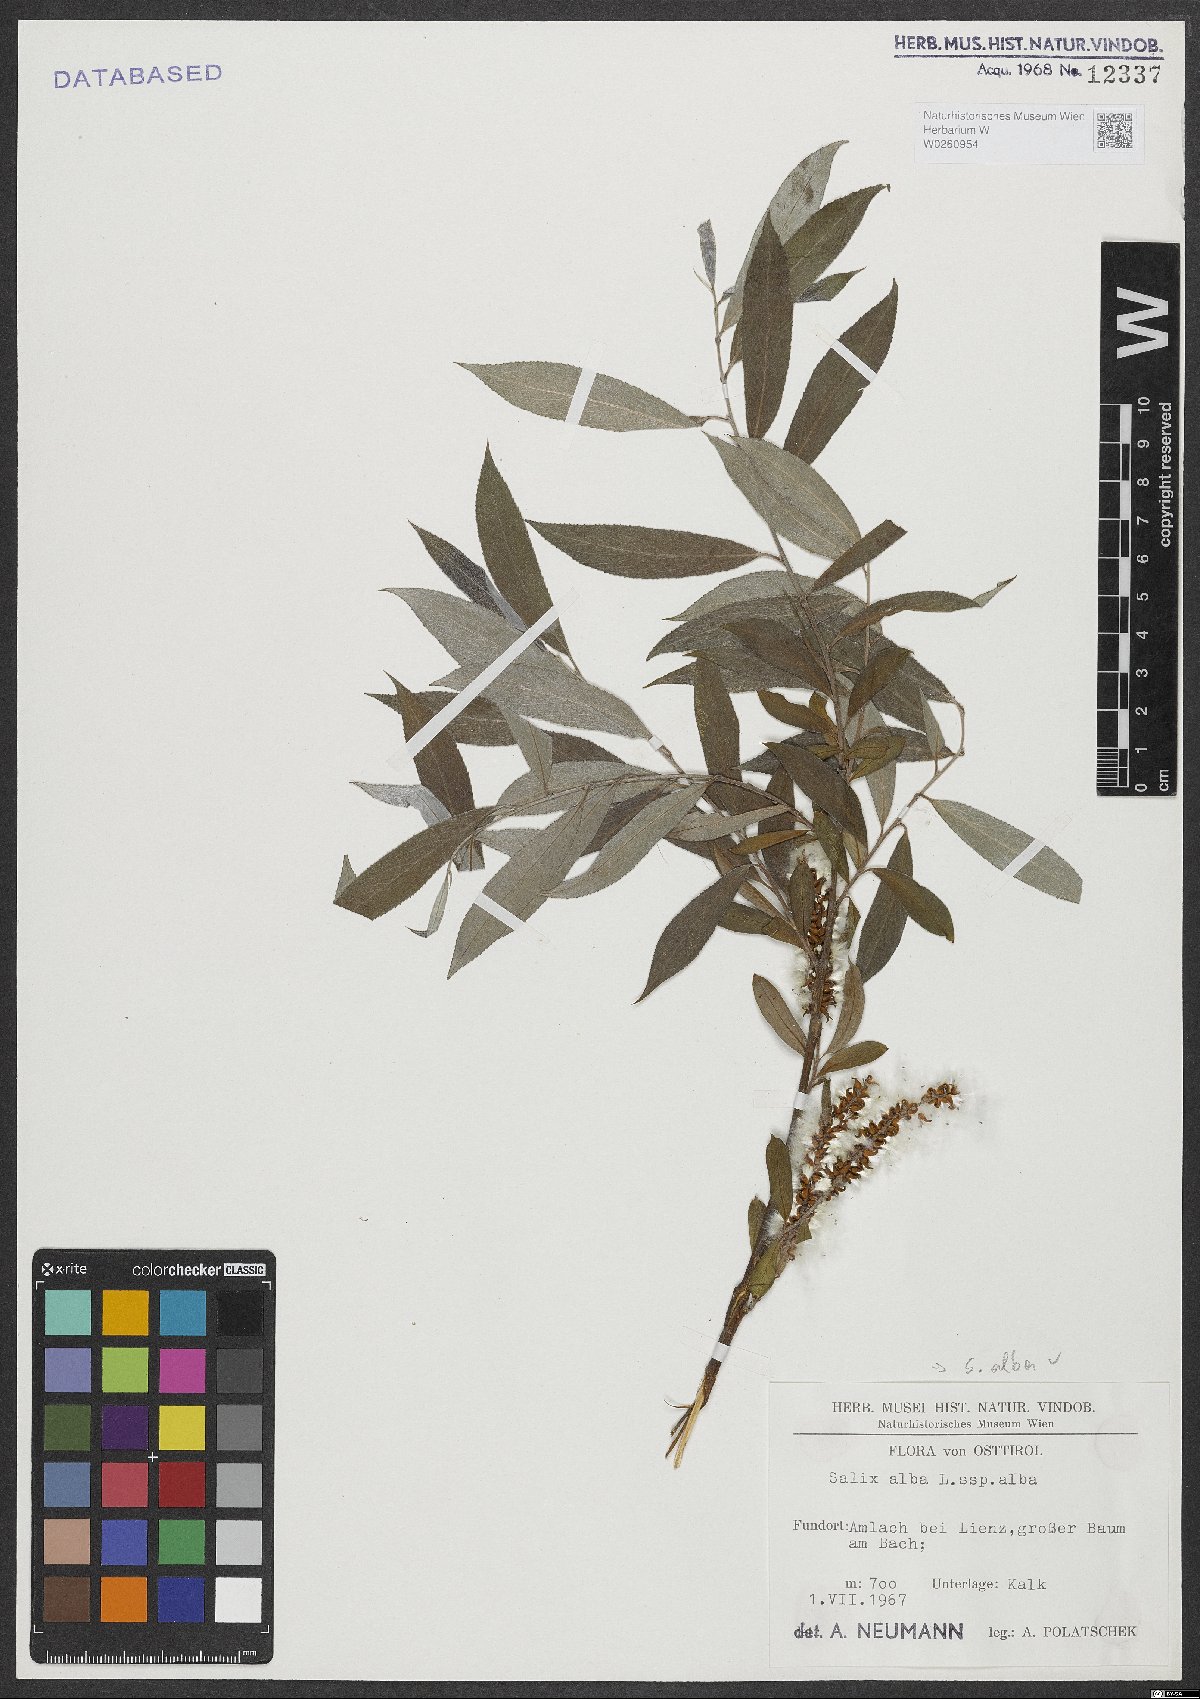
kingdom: Plantae
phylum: Tracheophyta
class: Magnoliopsida
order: Malpighiales
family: Salicaceae
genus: Salix
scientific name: Salix alba
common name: White willow
